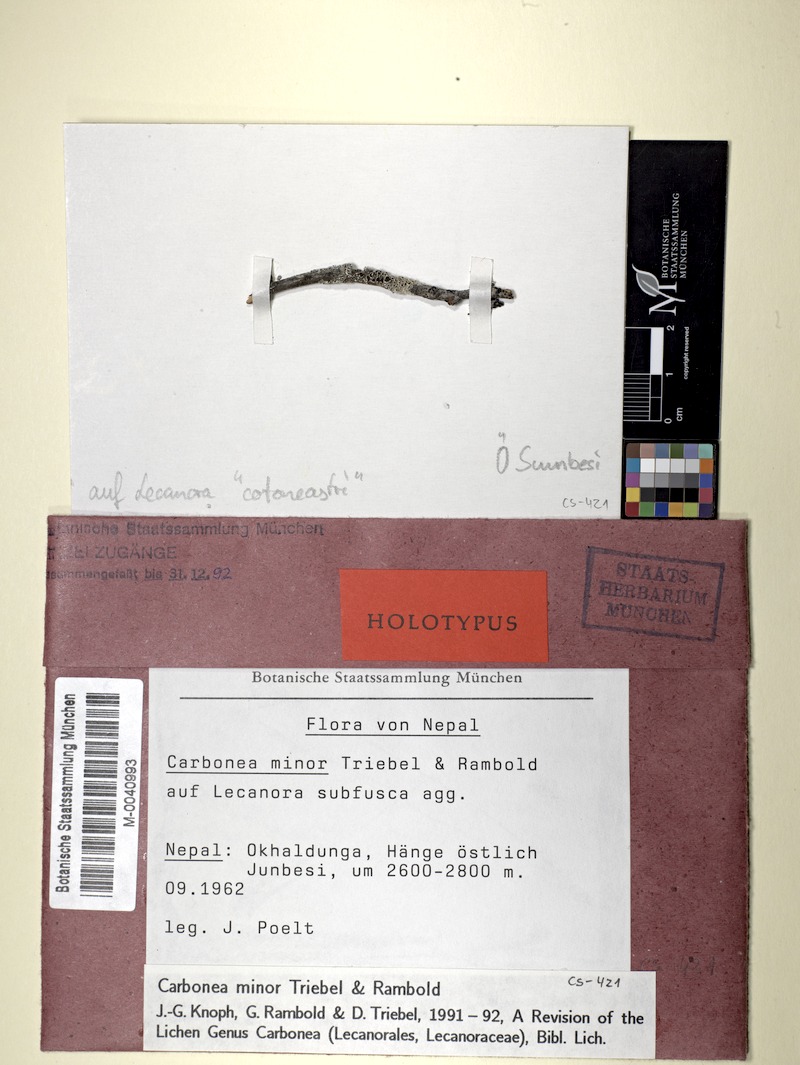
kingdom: Fungi
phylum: Ascomycota
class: Lecanoromycetes
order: Lecanorales
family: Lecanoraceae
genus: Lecanora
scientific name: Lecanora albella
